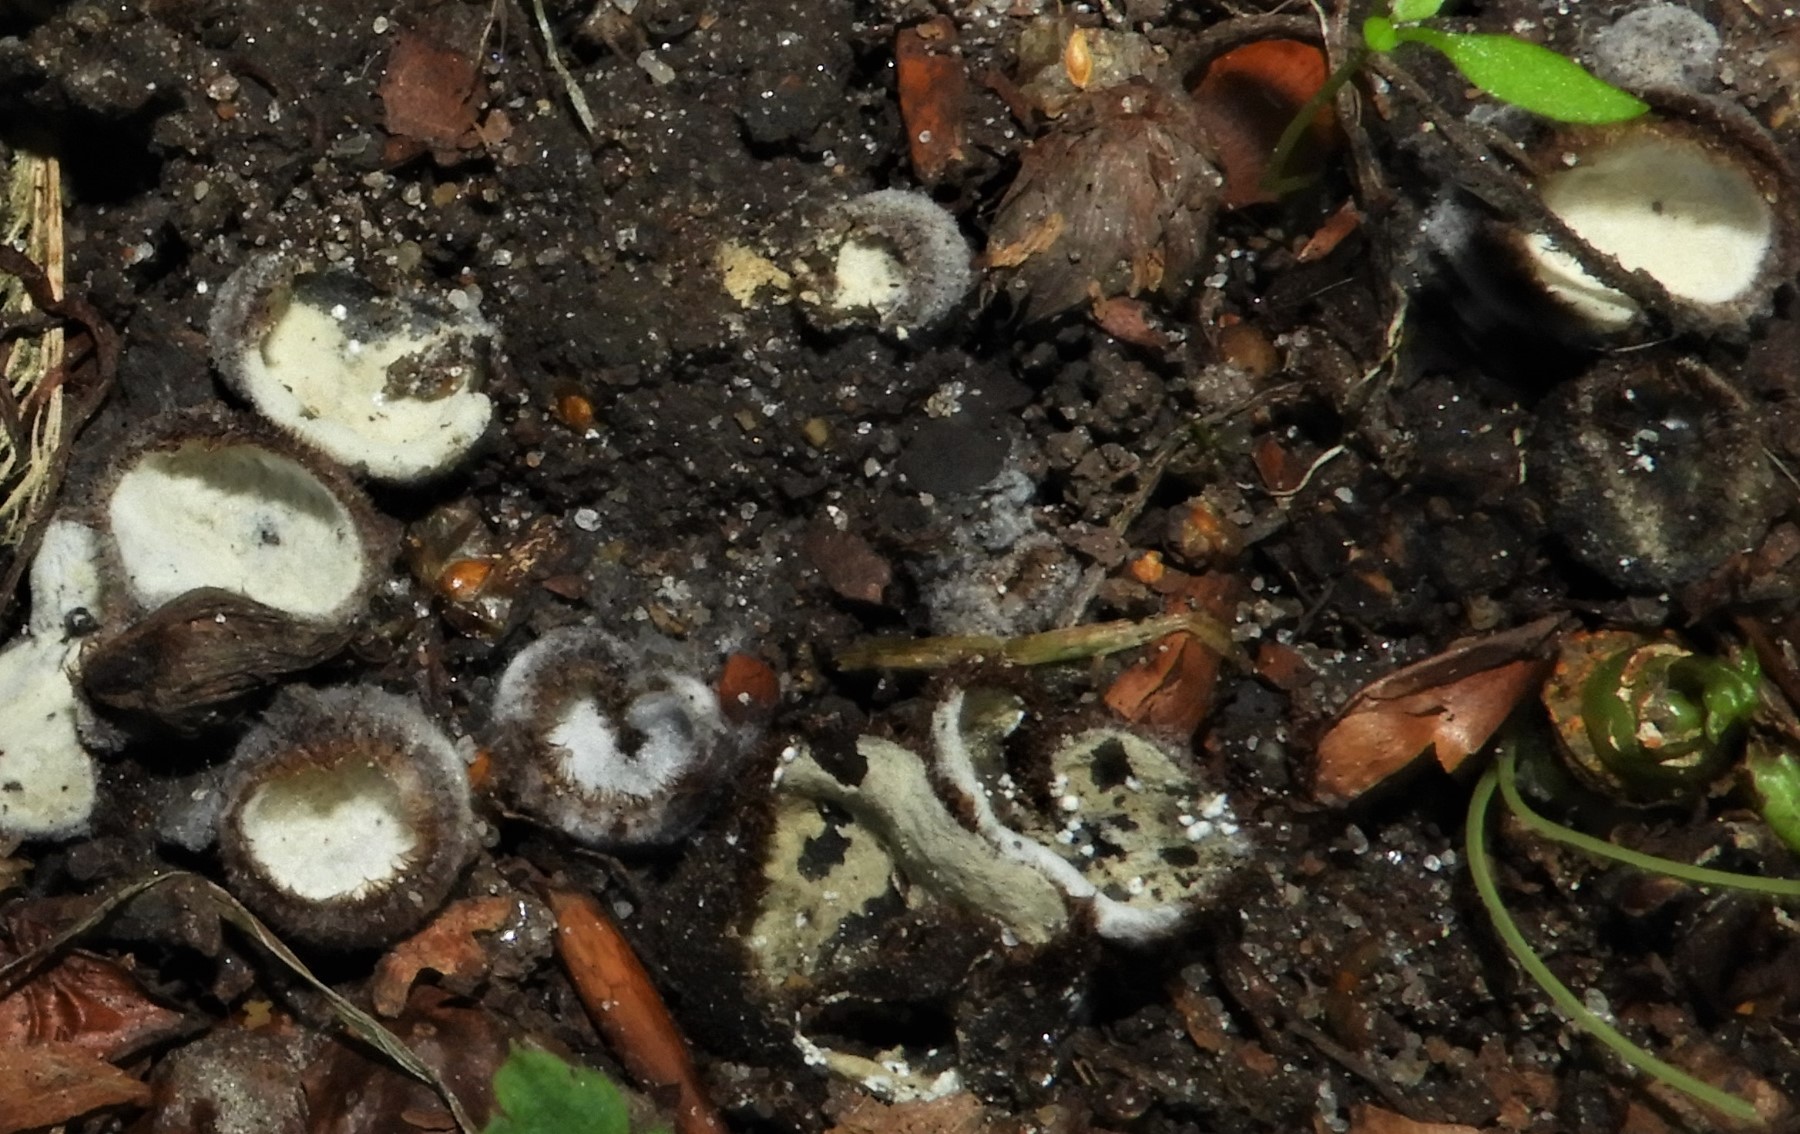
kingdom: Fungi
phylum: Ascomycota
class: Sordariomycetes
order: Hypocreales
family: Hypocreaceae
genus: Hypomyces
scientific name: Hypomyces stephanomatis
